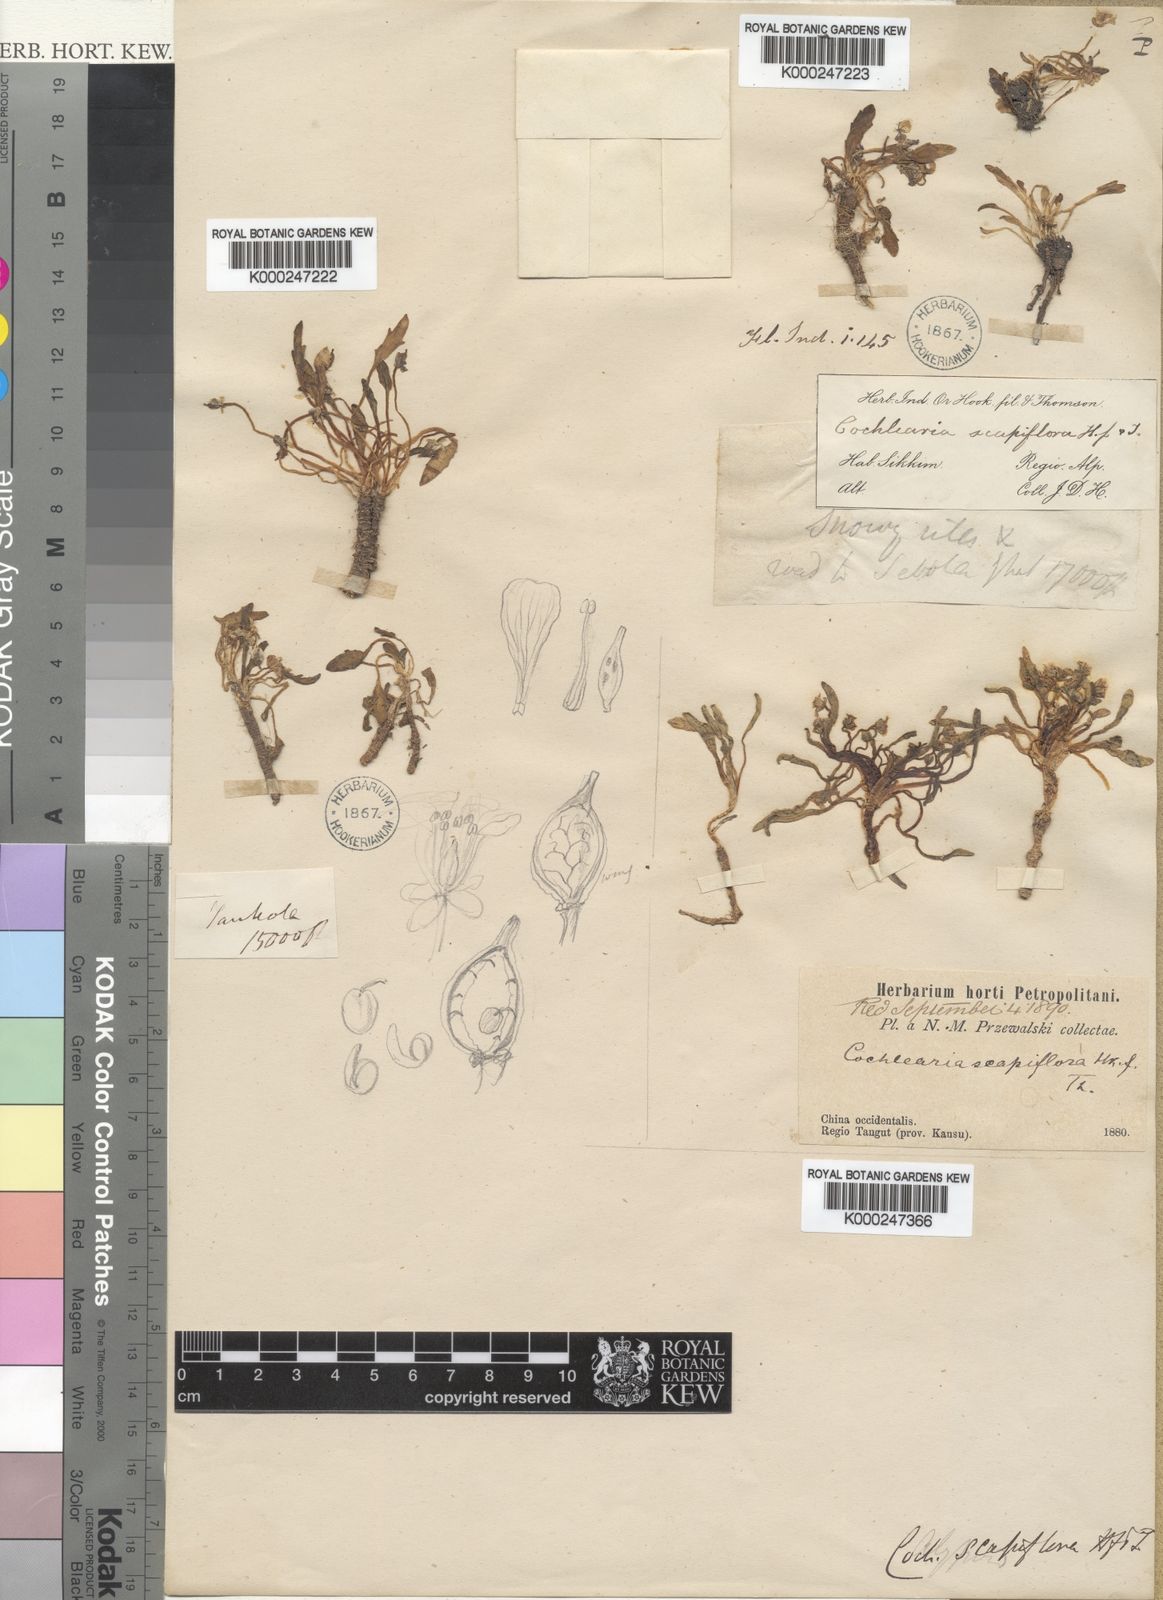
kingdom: Plantae
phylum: Tracheophyta
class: Magnoliopsida
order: Brassicales
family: Brassicaceae
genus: Eutrema
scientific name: Eutrema scapiflorum
